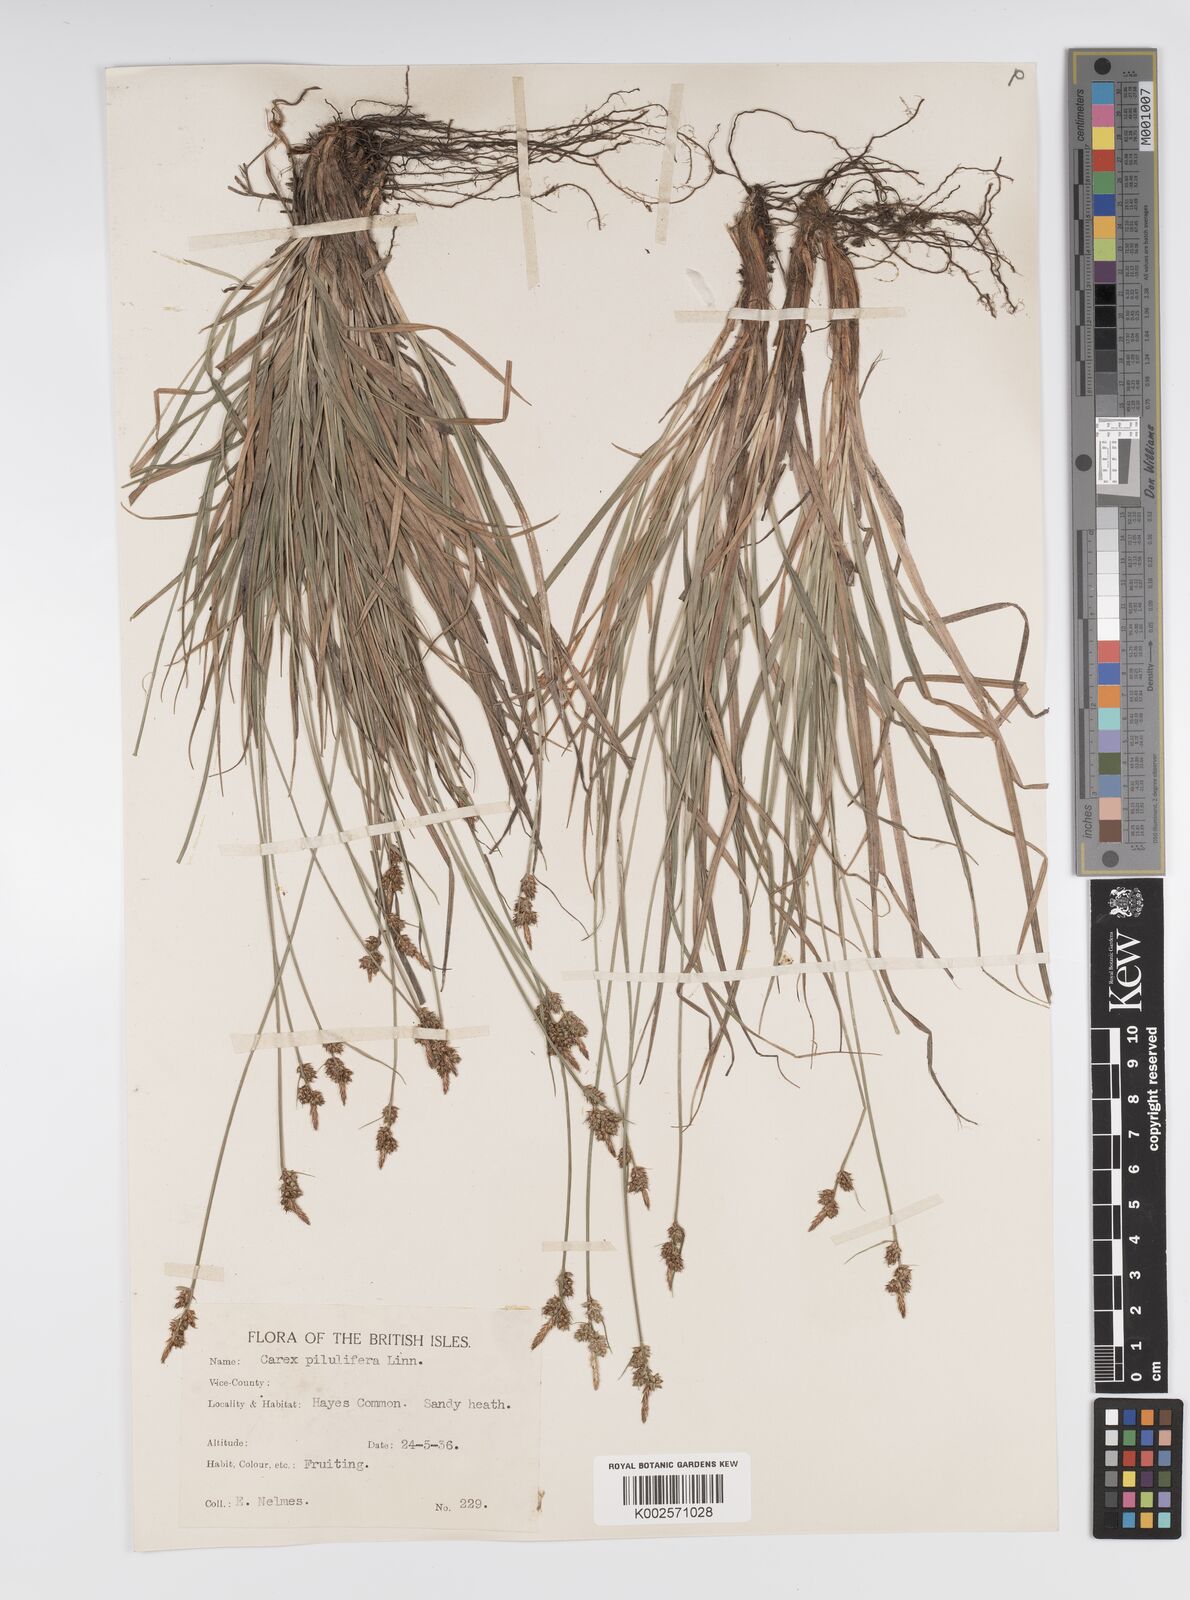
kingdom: Plantae
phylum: Tracheophyta
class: Liliopsida
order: Poales
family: Cyperaceae
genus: Carex
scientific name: Carex pilulifera
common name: Pill sedge
